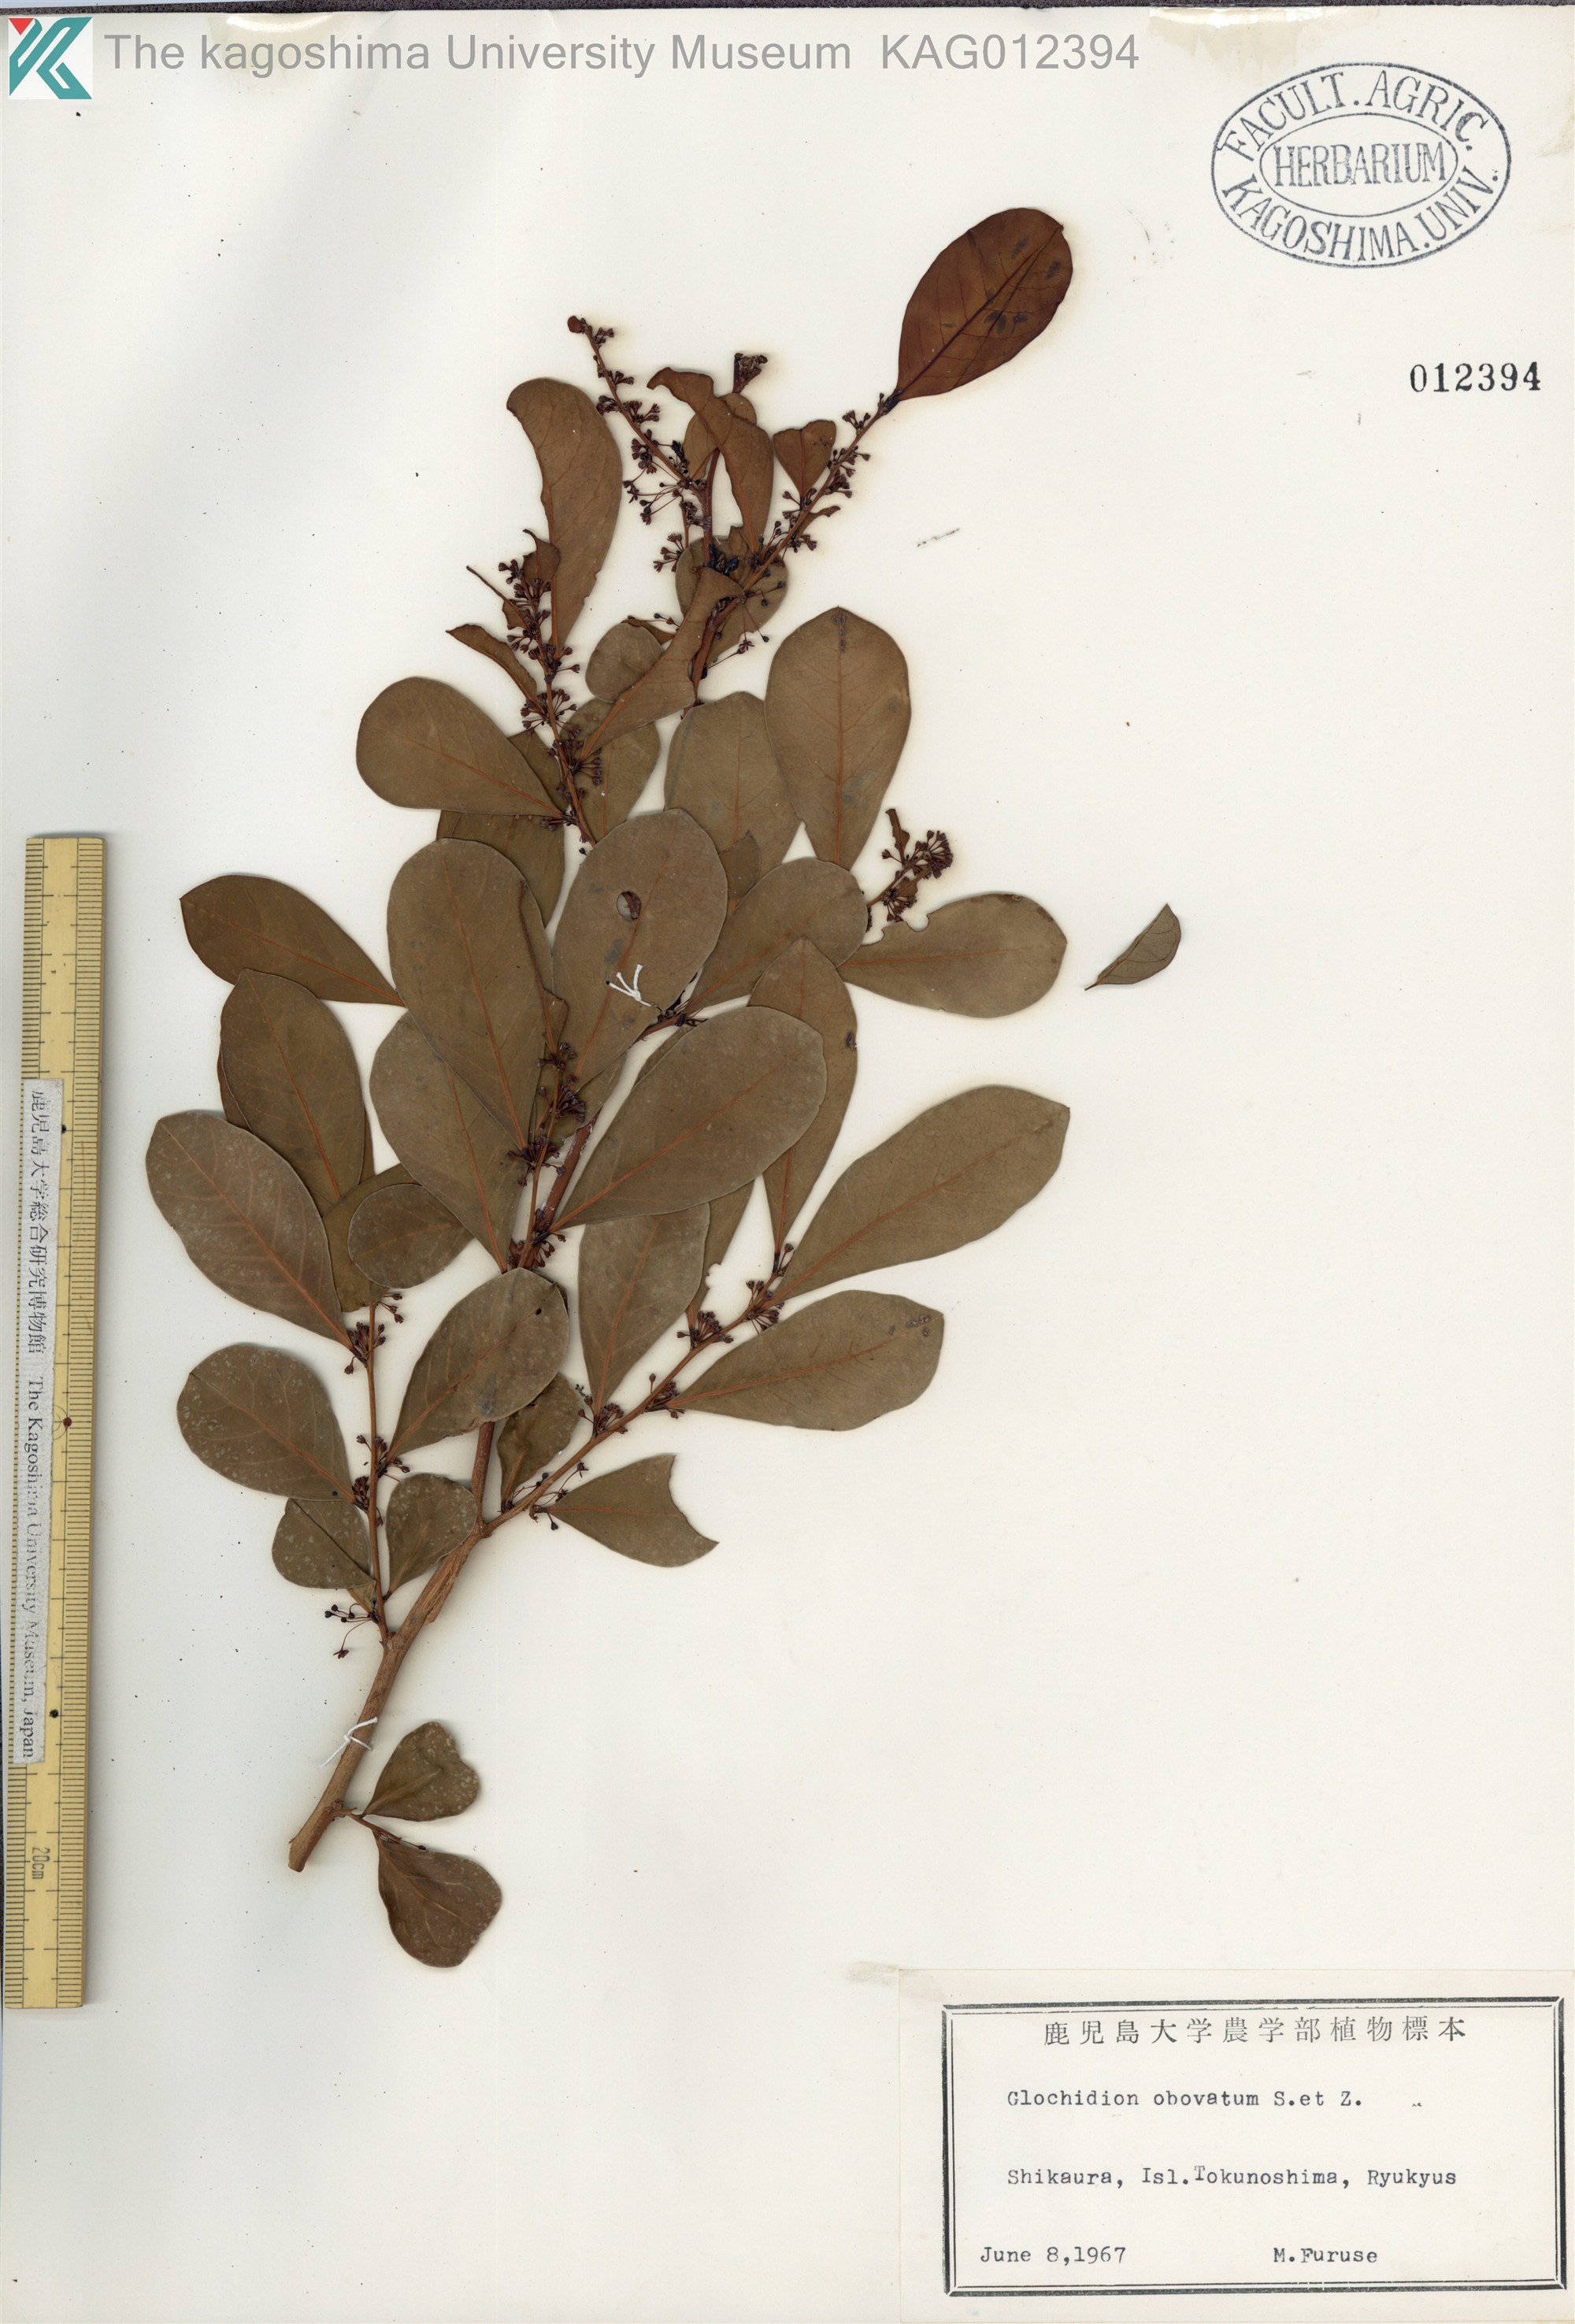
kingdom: Plantae
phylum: Tracheophyta
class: Magnoliopsida
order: Malpighiales
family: Phyllanthaceae
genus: Glochidion
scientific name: Glochidion obovatum
